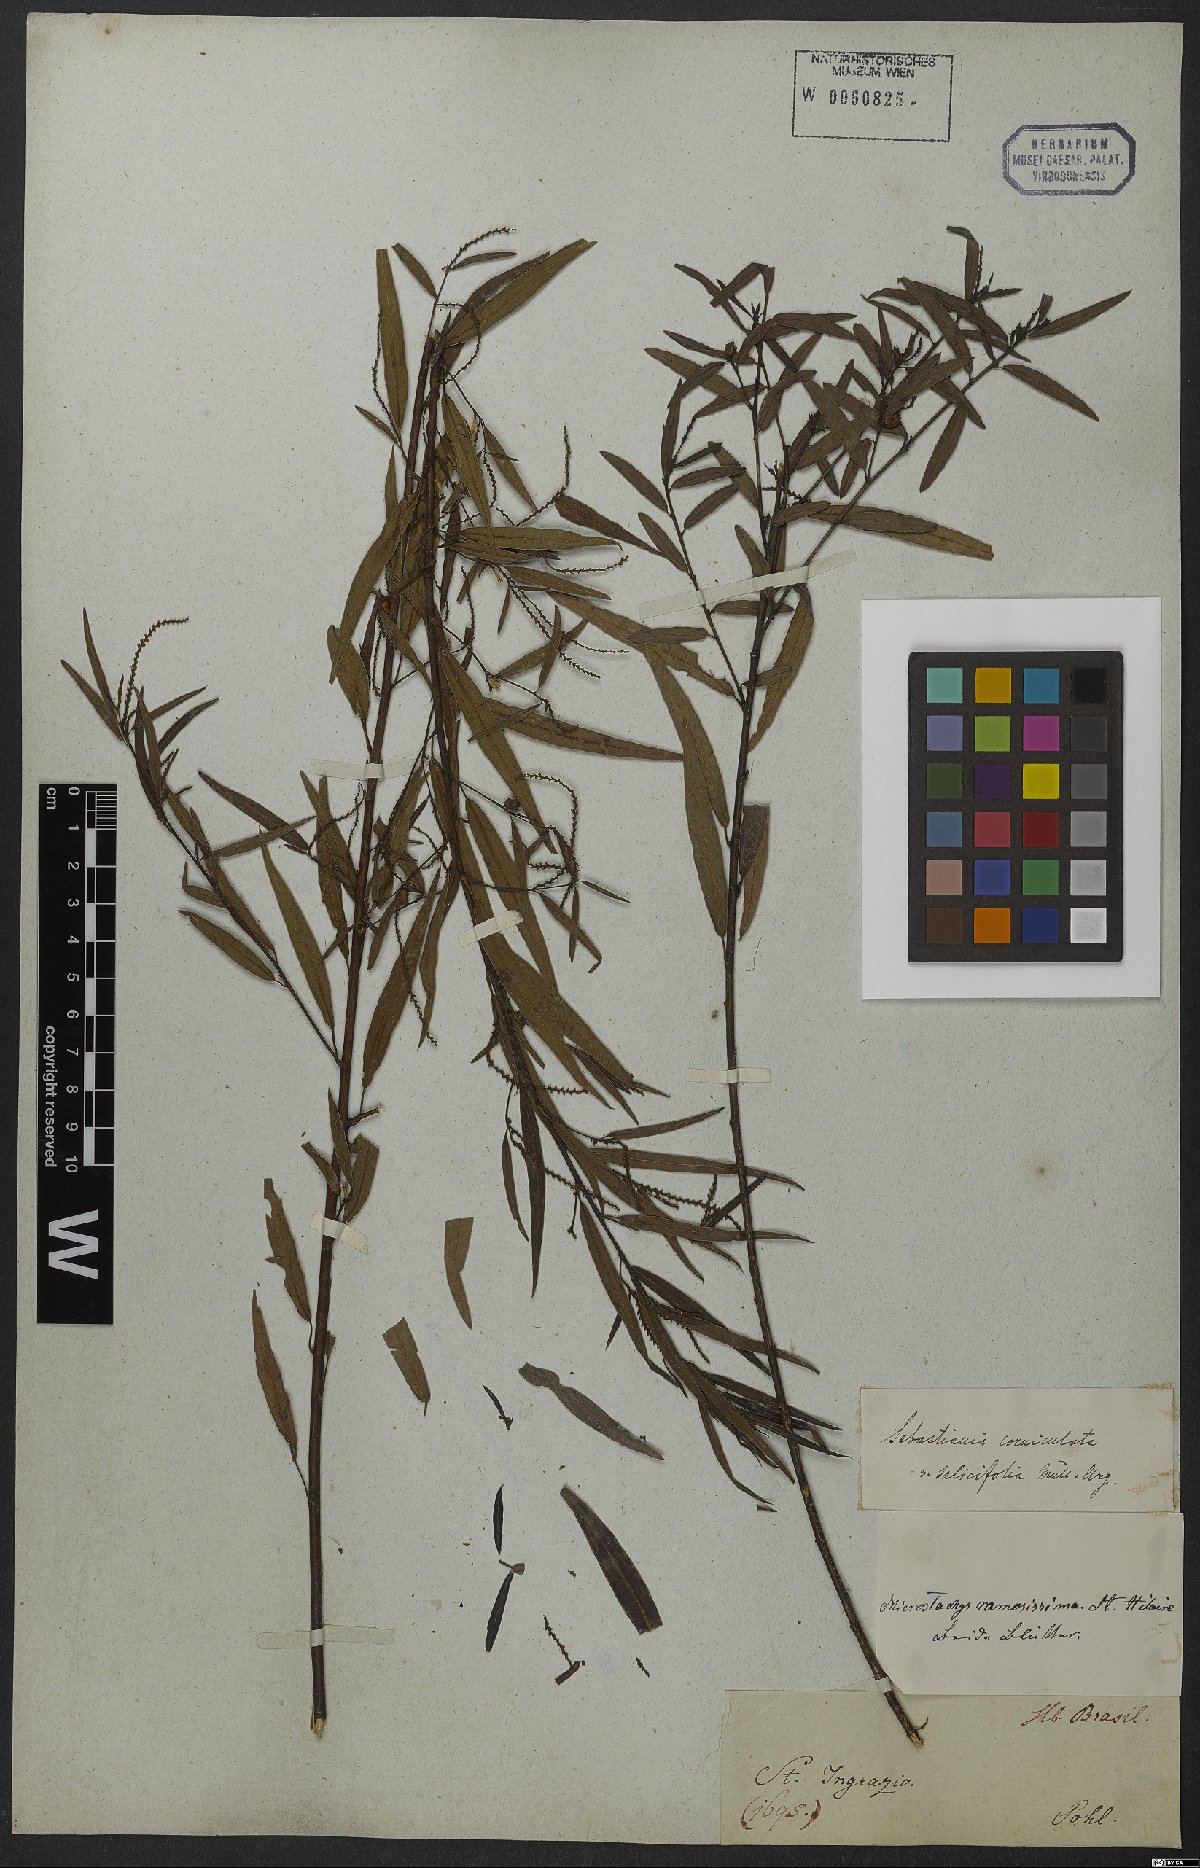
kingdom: Plantae
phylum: Tracheophyta
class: Magnoliopsida
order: Malpighiales
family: Euphorbiaceae
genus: Microstachys
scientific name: Microstachys salicifolia
